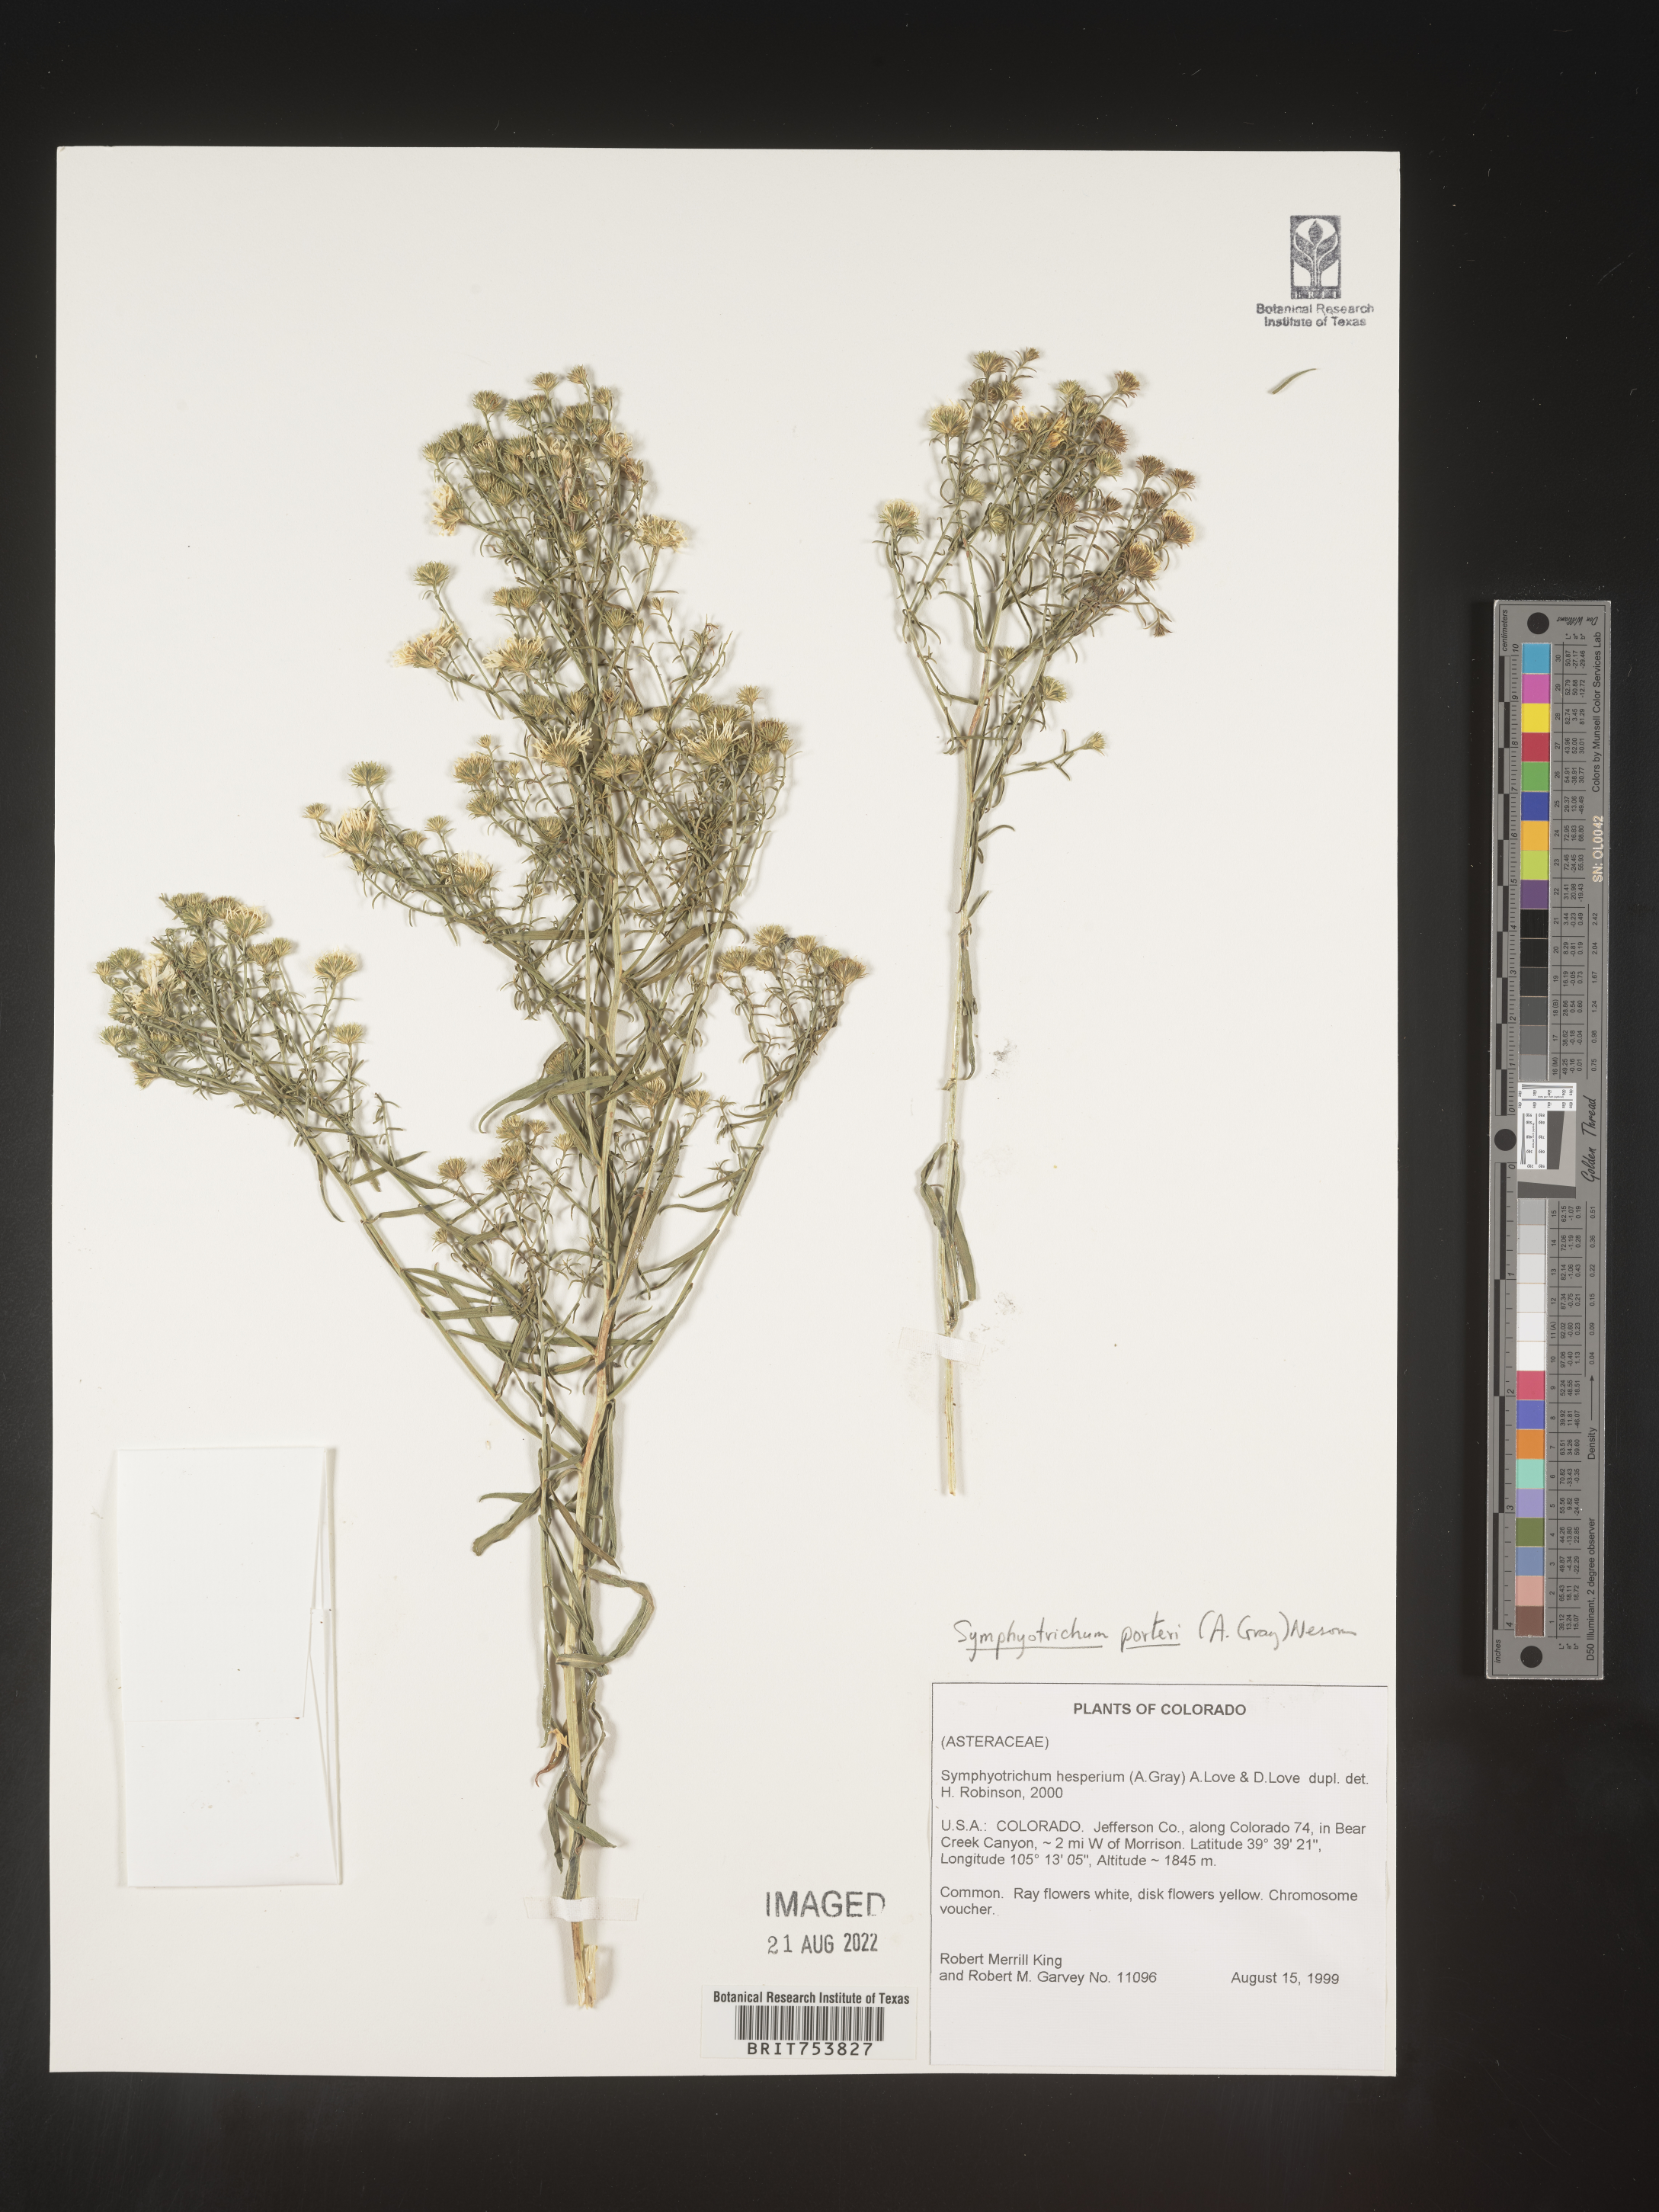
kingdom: Plantae
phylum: Tracheophyta
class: Magnoliopsida
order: Asterales
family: Asteraceae
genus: Symphyotrichum
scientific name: Symphyotrichum porteri
